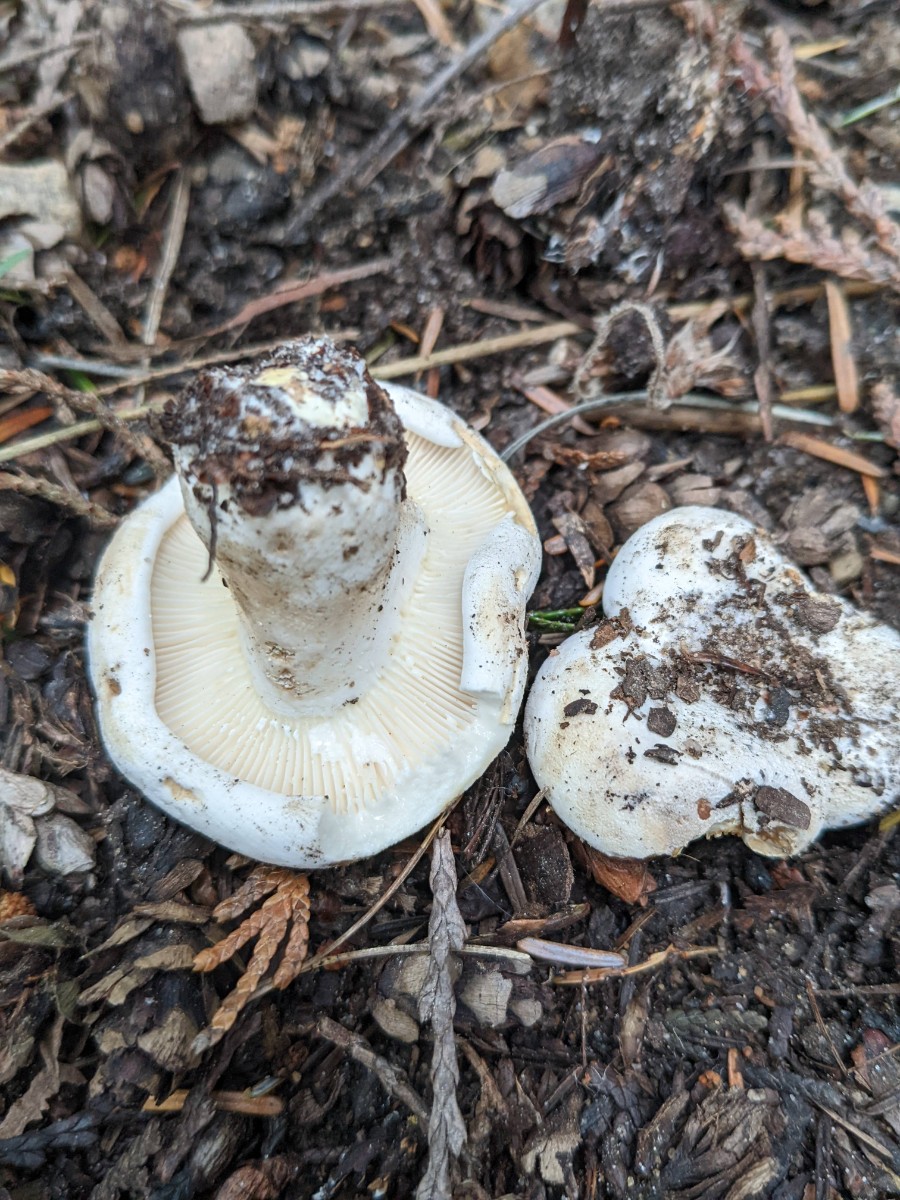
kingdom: Fungi
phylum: Basidiomycota
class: Agaricomycetes
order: Russulales
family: Russulaceae
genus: Lactifluus
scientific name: Lactifluus bertillonii
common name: blødfiltet mælkehat
